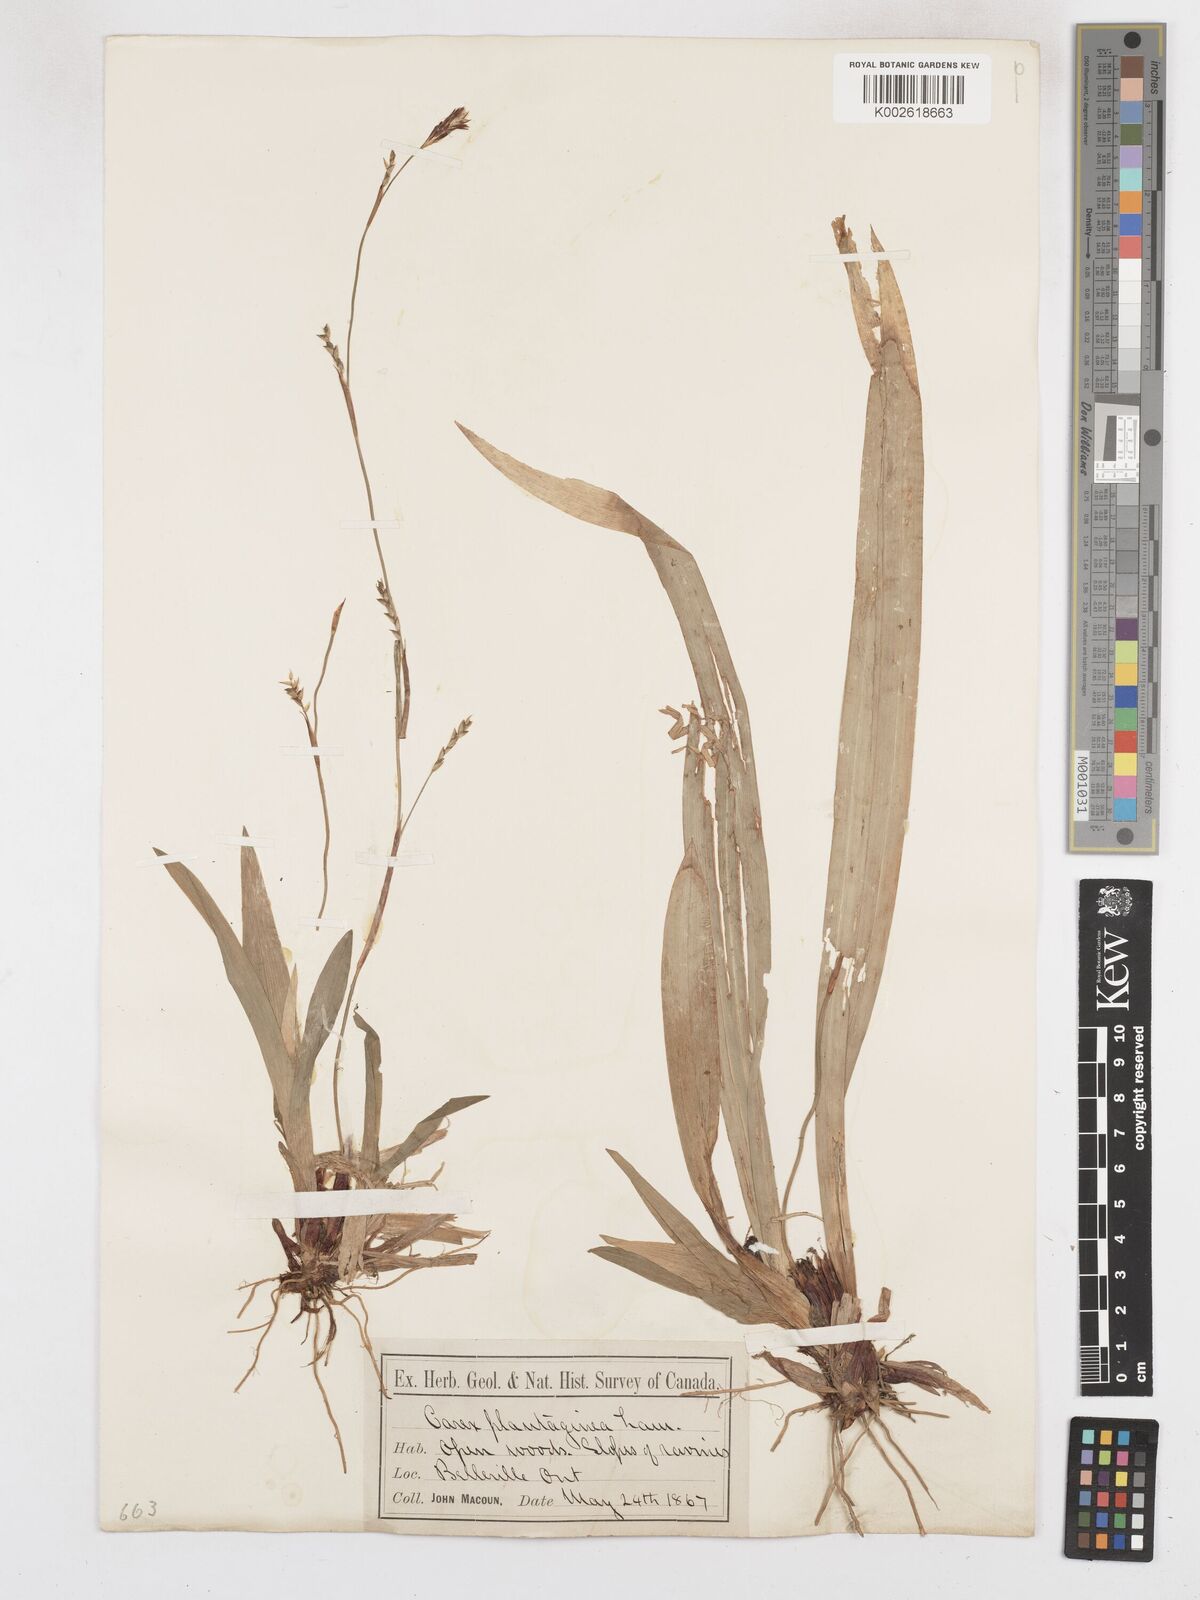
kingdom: Plantae
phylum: Tracheophyta
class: Liliopsida
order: Poales
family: Cyperaceae
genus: Carex
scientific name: Carex plantaginea
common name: Plantain-leaved sedge
